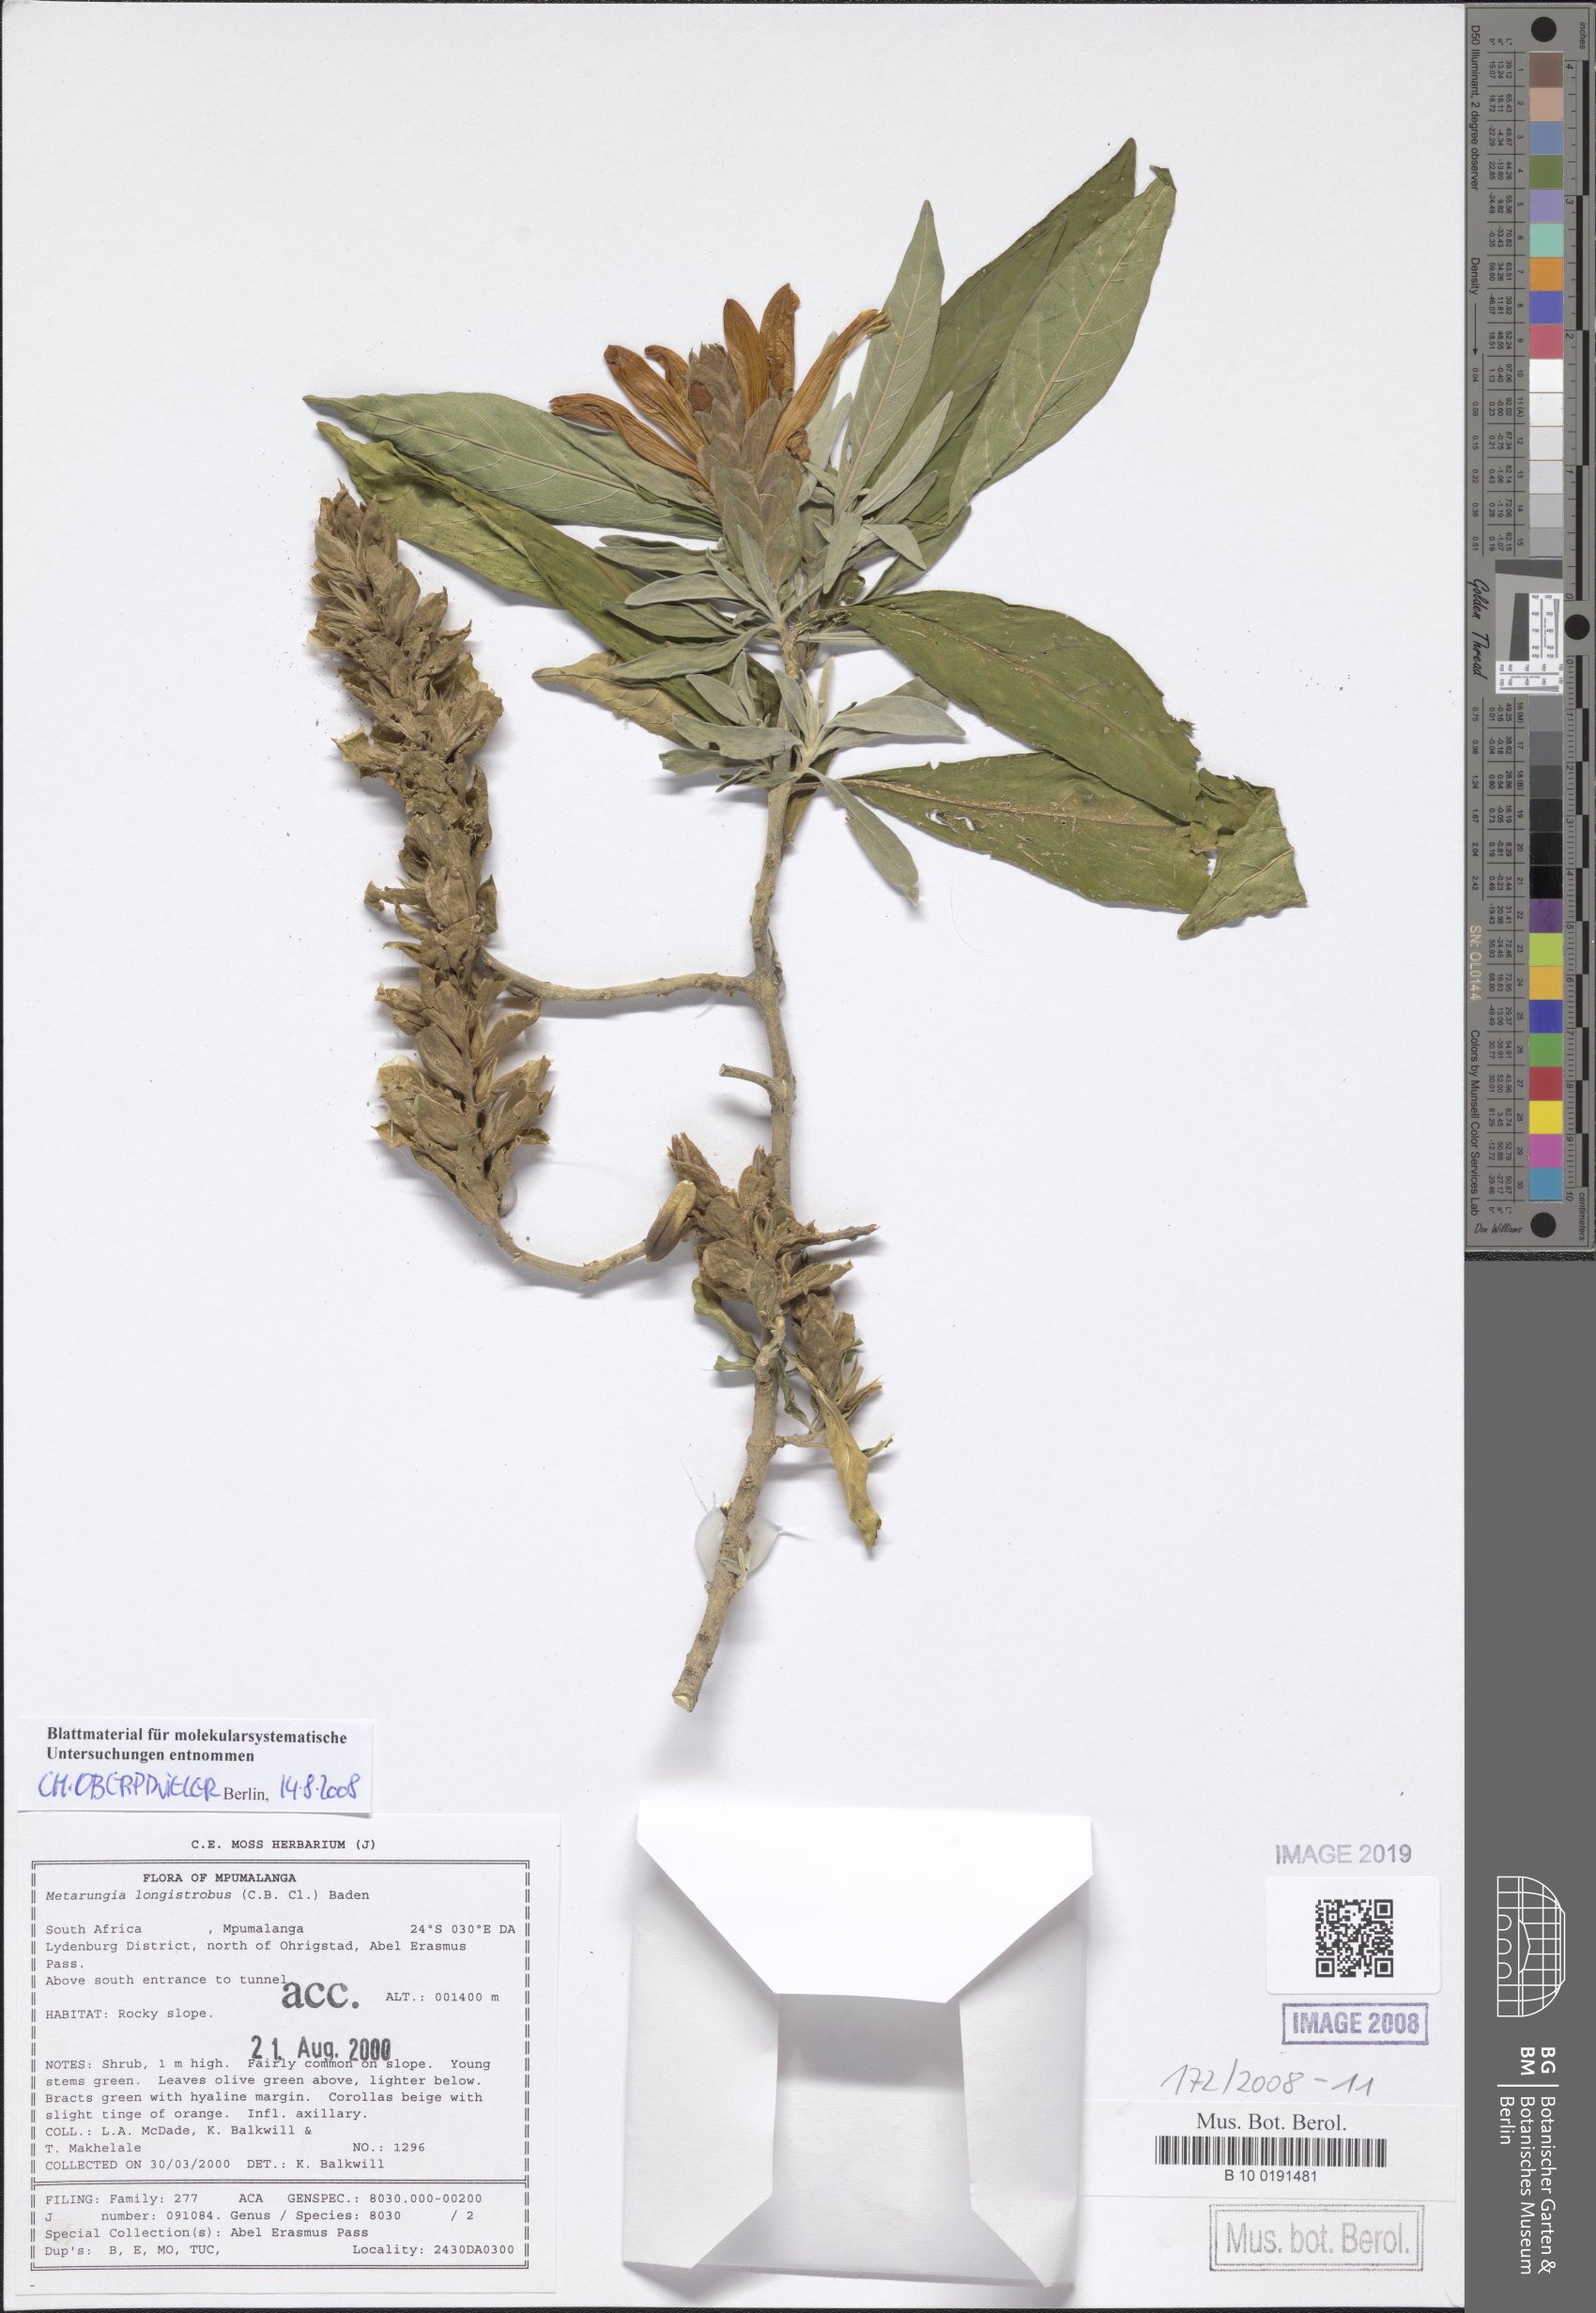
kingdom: Plantae
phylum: Tracheophyta
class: Magnoliopsida
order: Lamiales
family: Acanthaceae
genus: Metarungia
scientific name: Metarungia longistrobus
